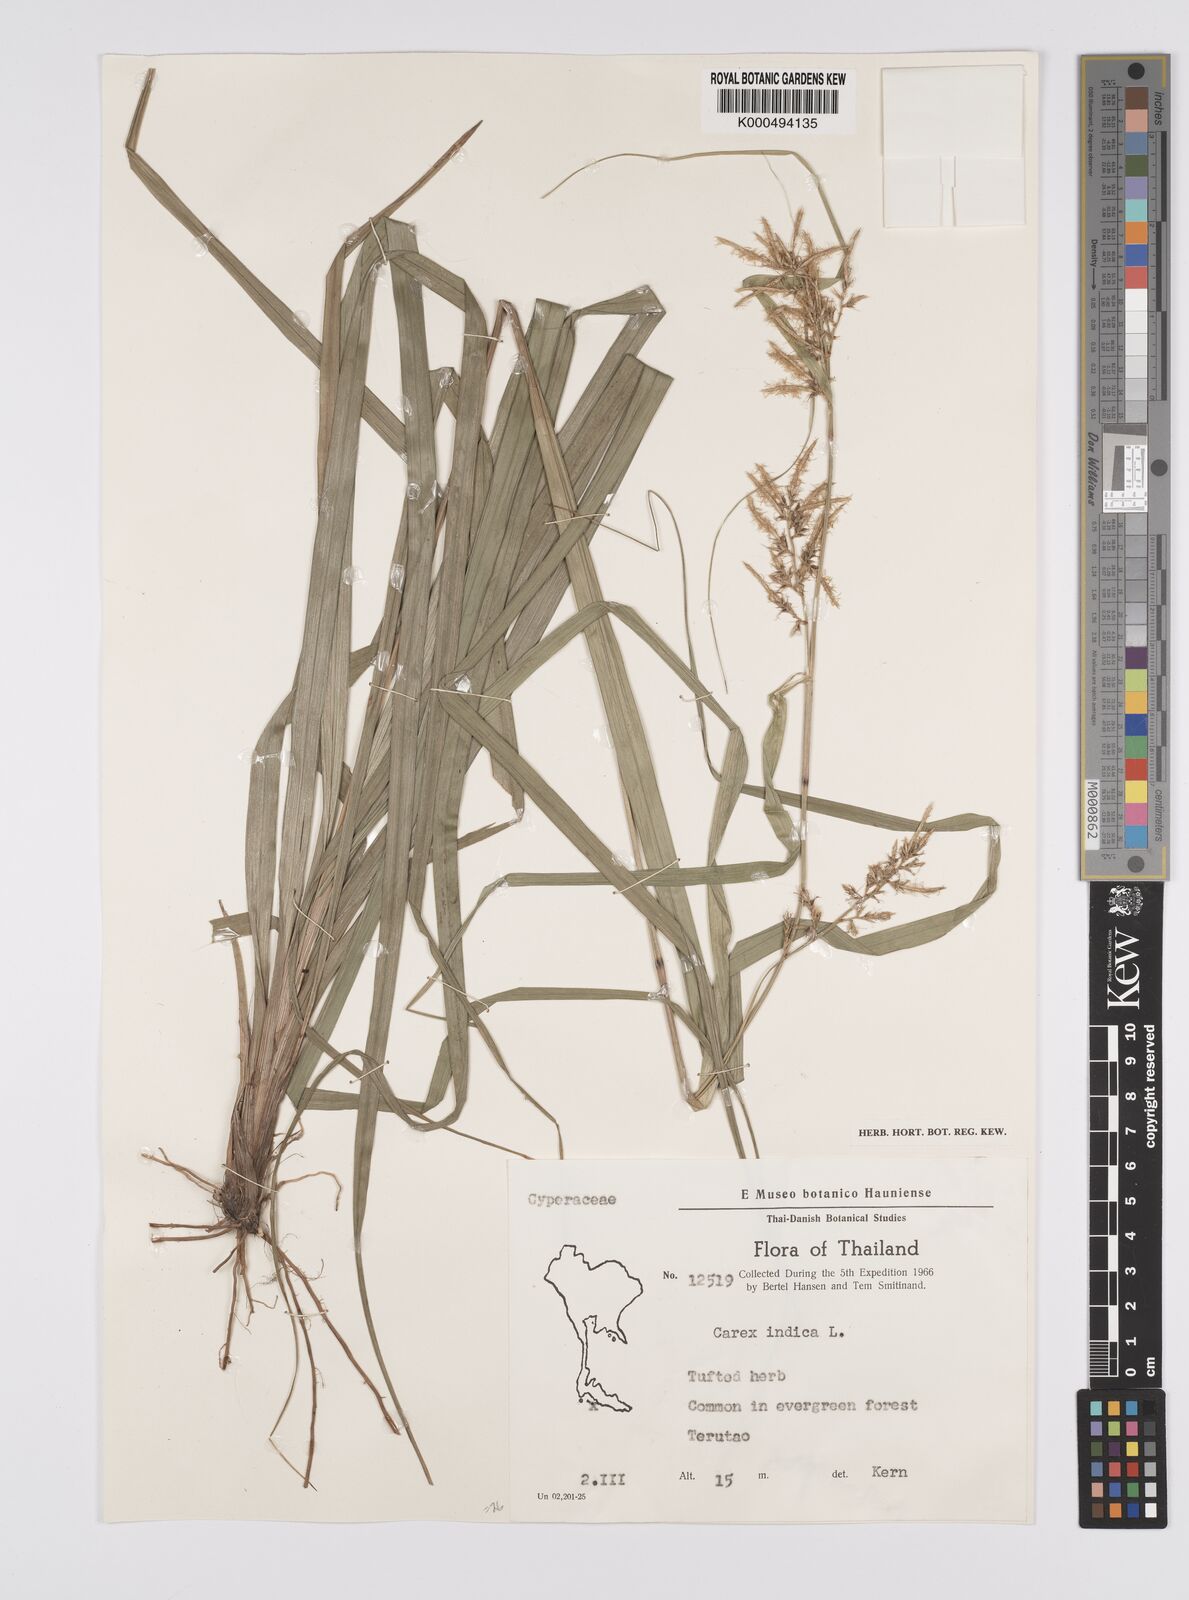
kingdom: Plantae
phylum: Tracheophyta
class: Liliopsida
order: Poales
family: Cyperaceae
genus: Carex
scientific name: Carex indica
